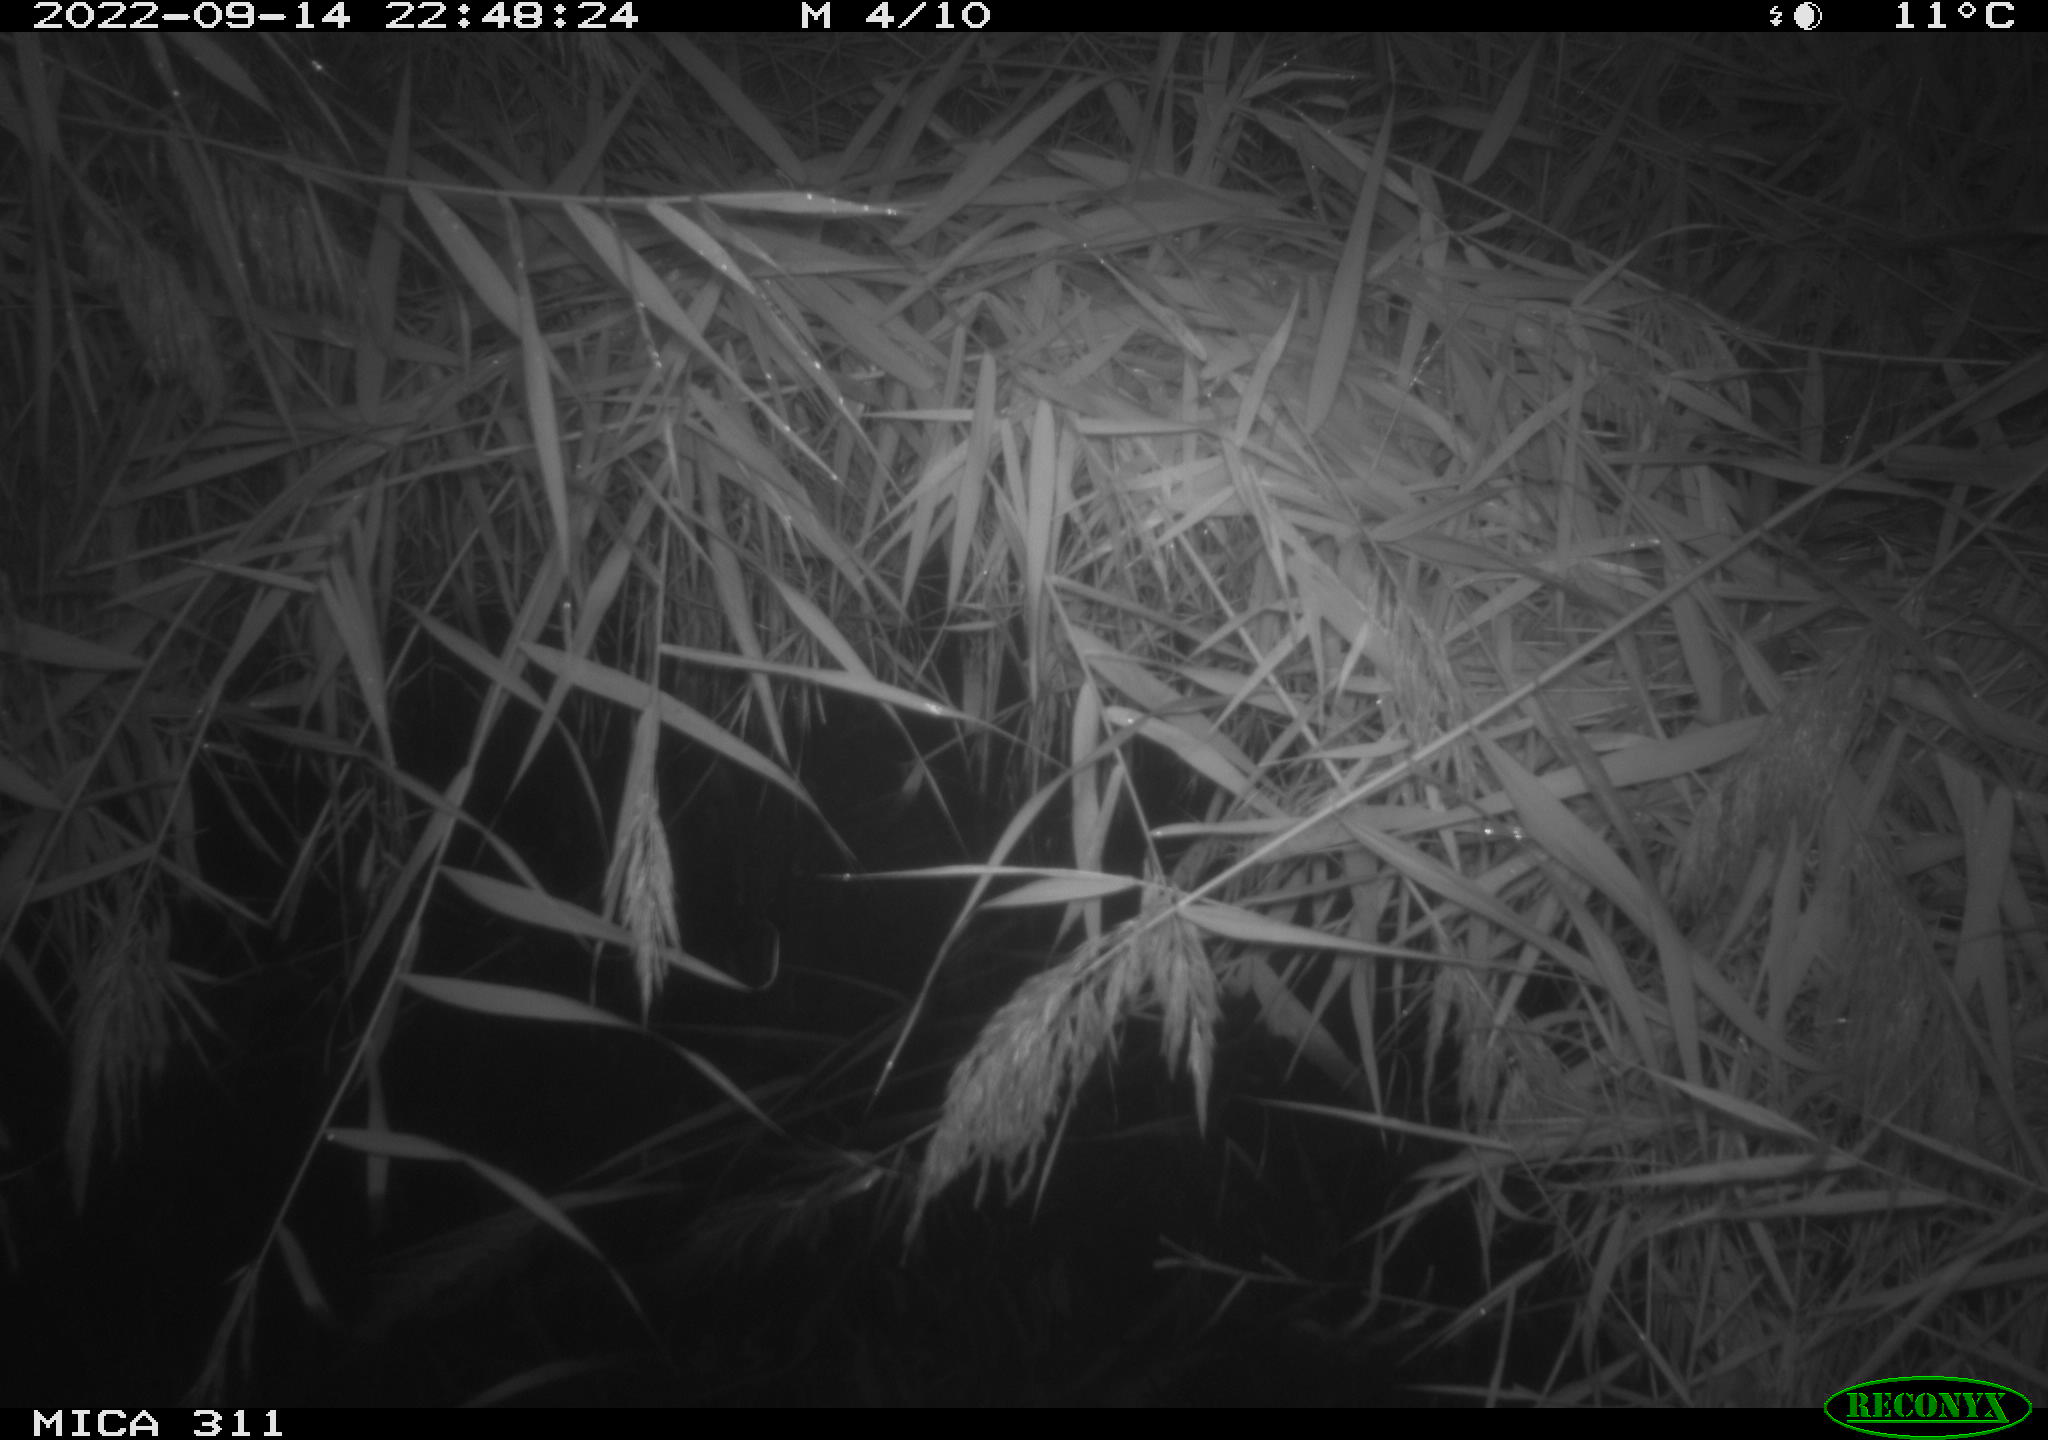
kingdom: Animalia
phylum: Chordata
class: Mammalia
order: Rodentia
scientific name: Rodentia
